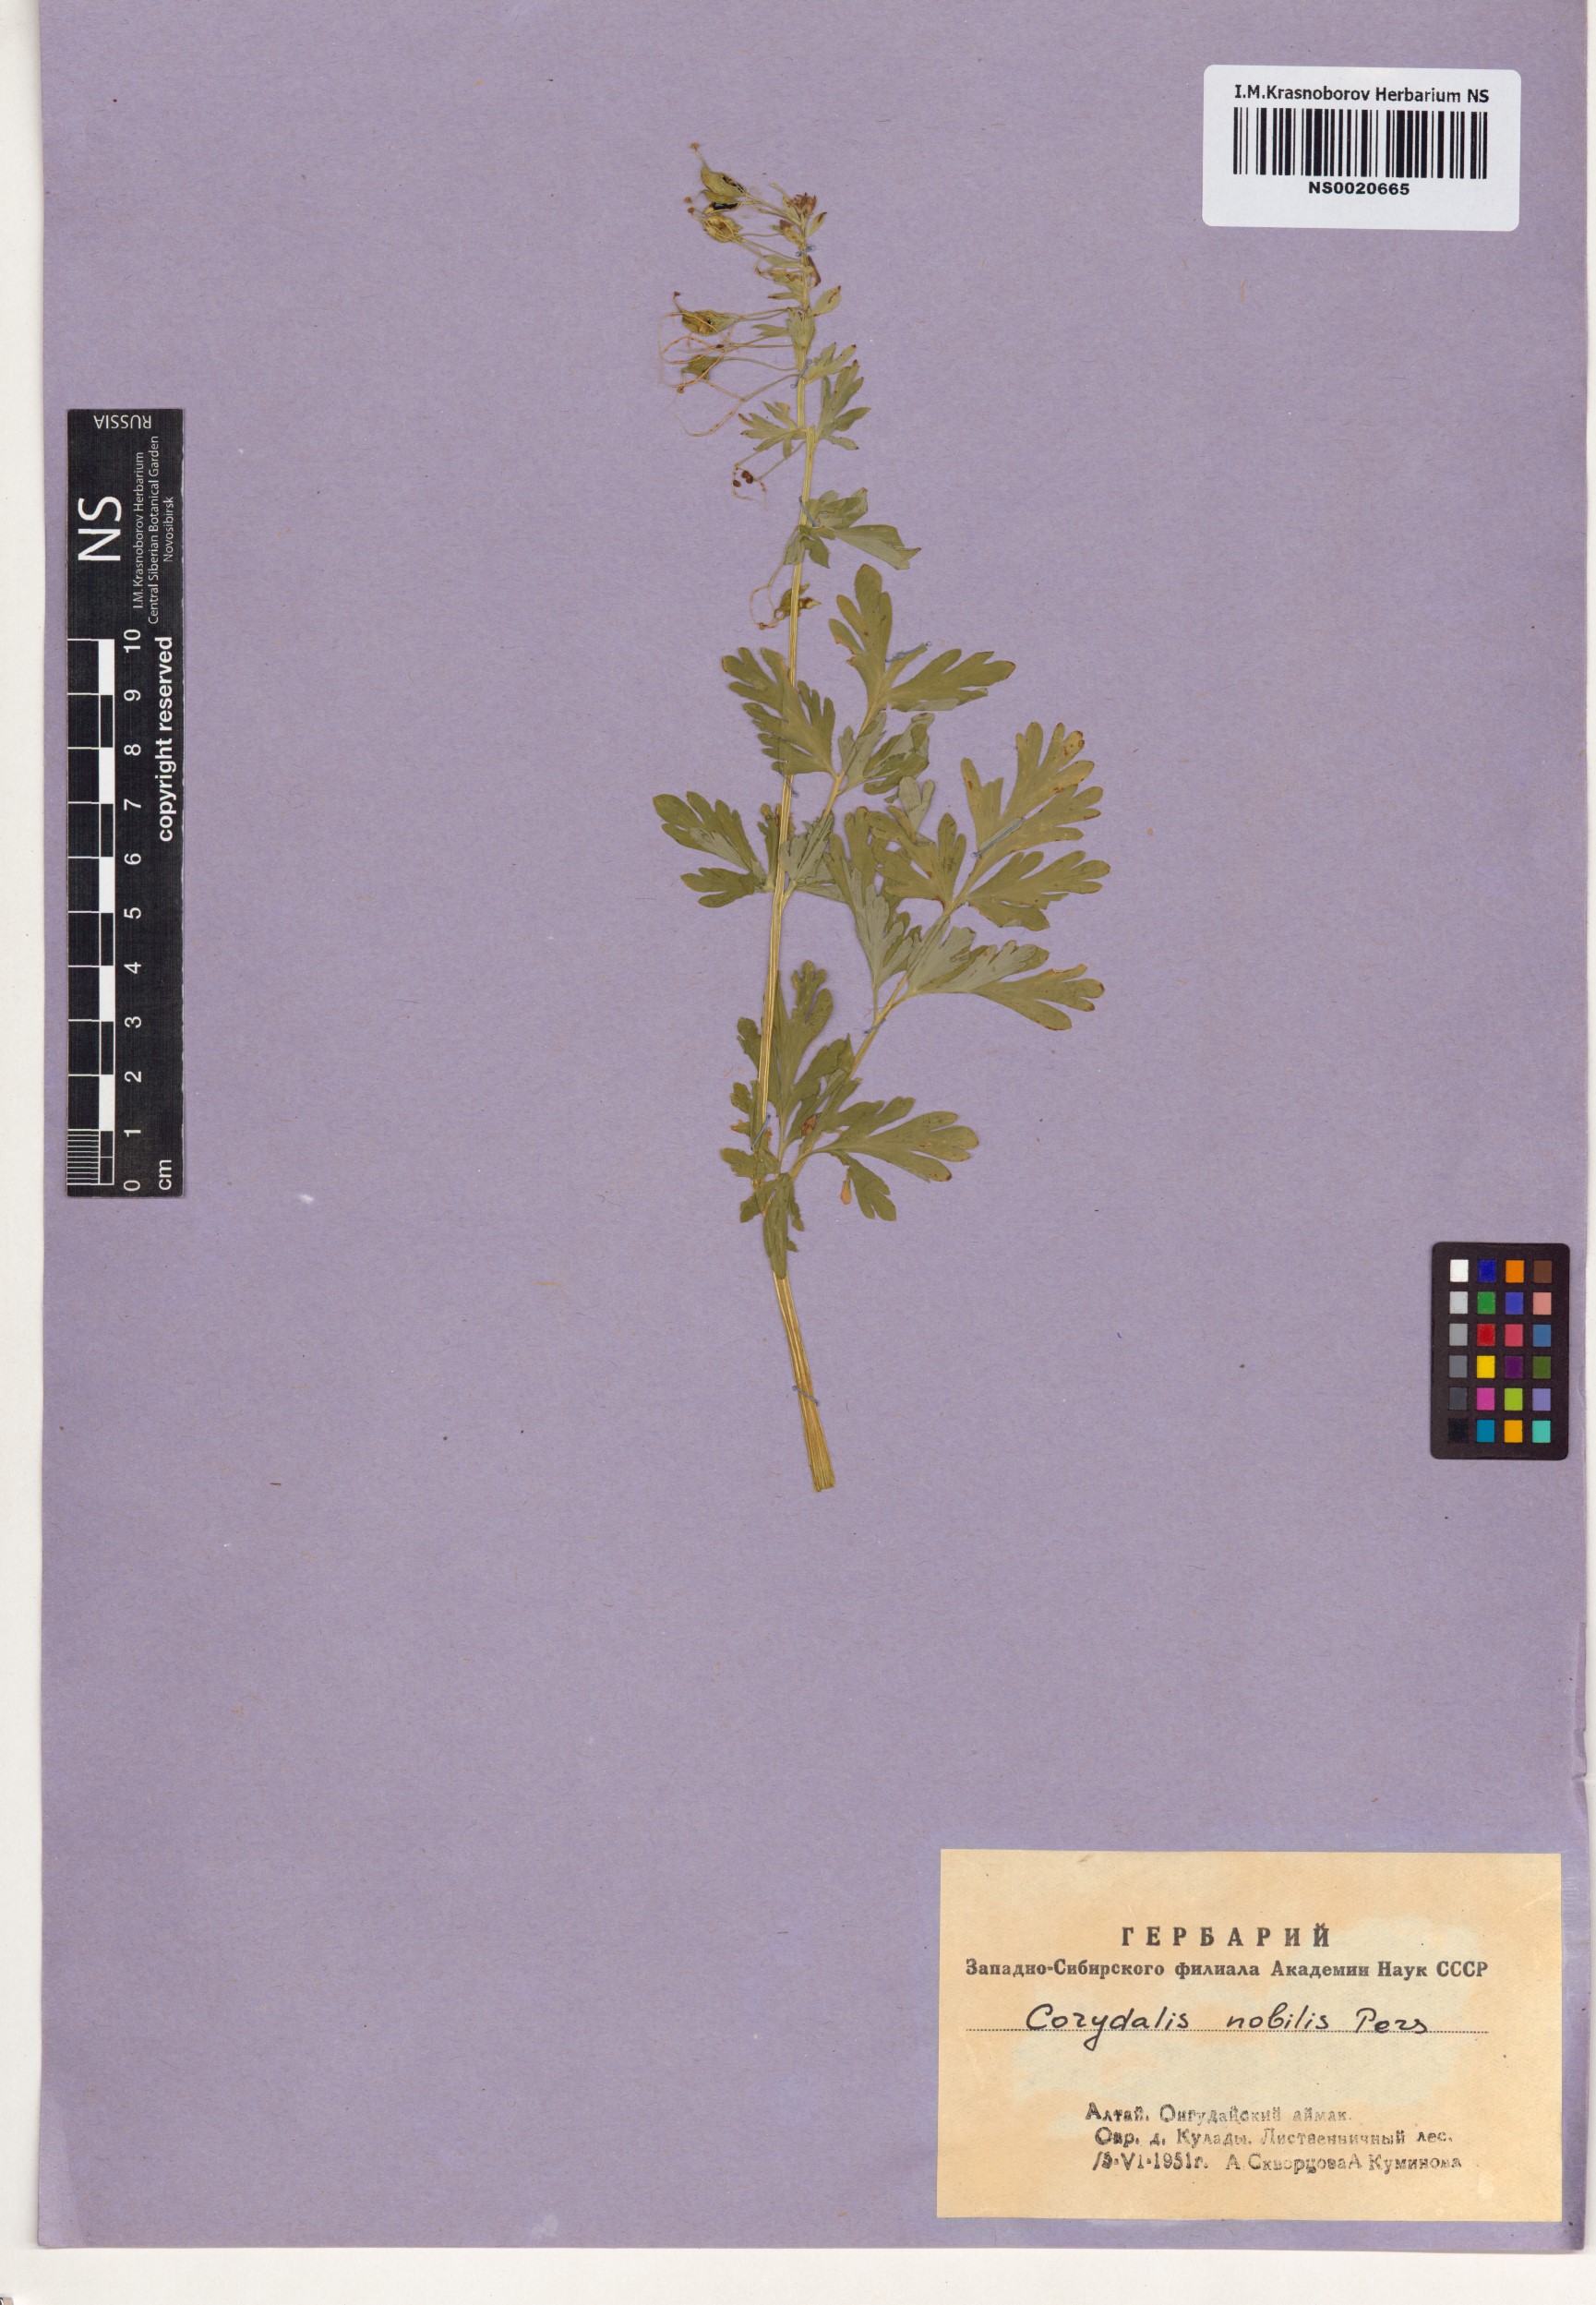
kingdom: Plantae
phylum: Tracheophyta
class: Magnoliopsida
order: Ranunculales
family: Papaveraceae
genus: Corydalis
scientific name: Corydalis nobilis
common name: Siberian corydalis
